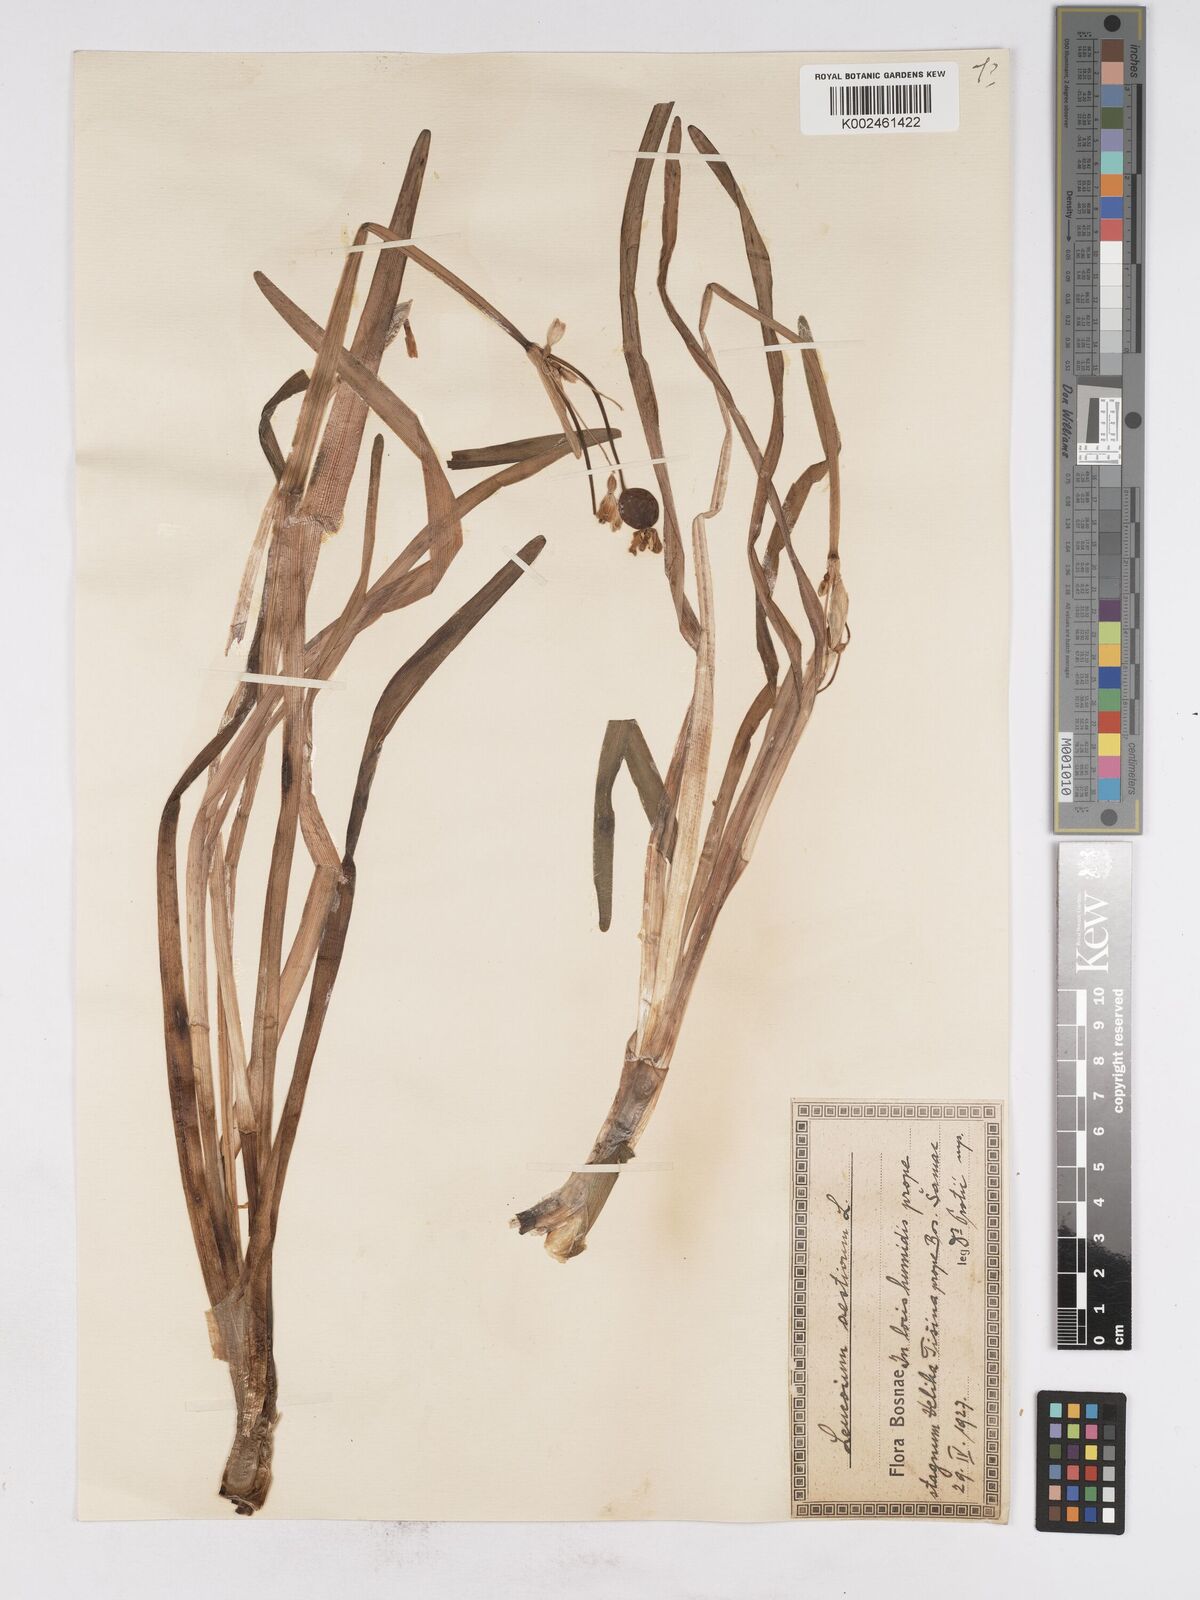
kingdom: Plantae
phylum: Tracheophyta
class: Liliopsida
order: Asparagales
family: Amaryllidaceae
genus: Leucojum
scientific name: Leucojum aestivum
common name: Summer snowflake
